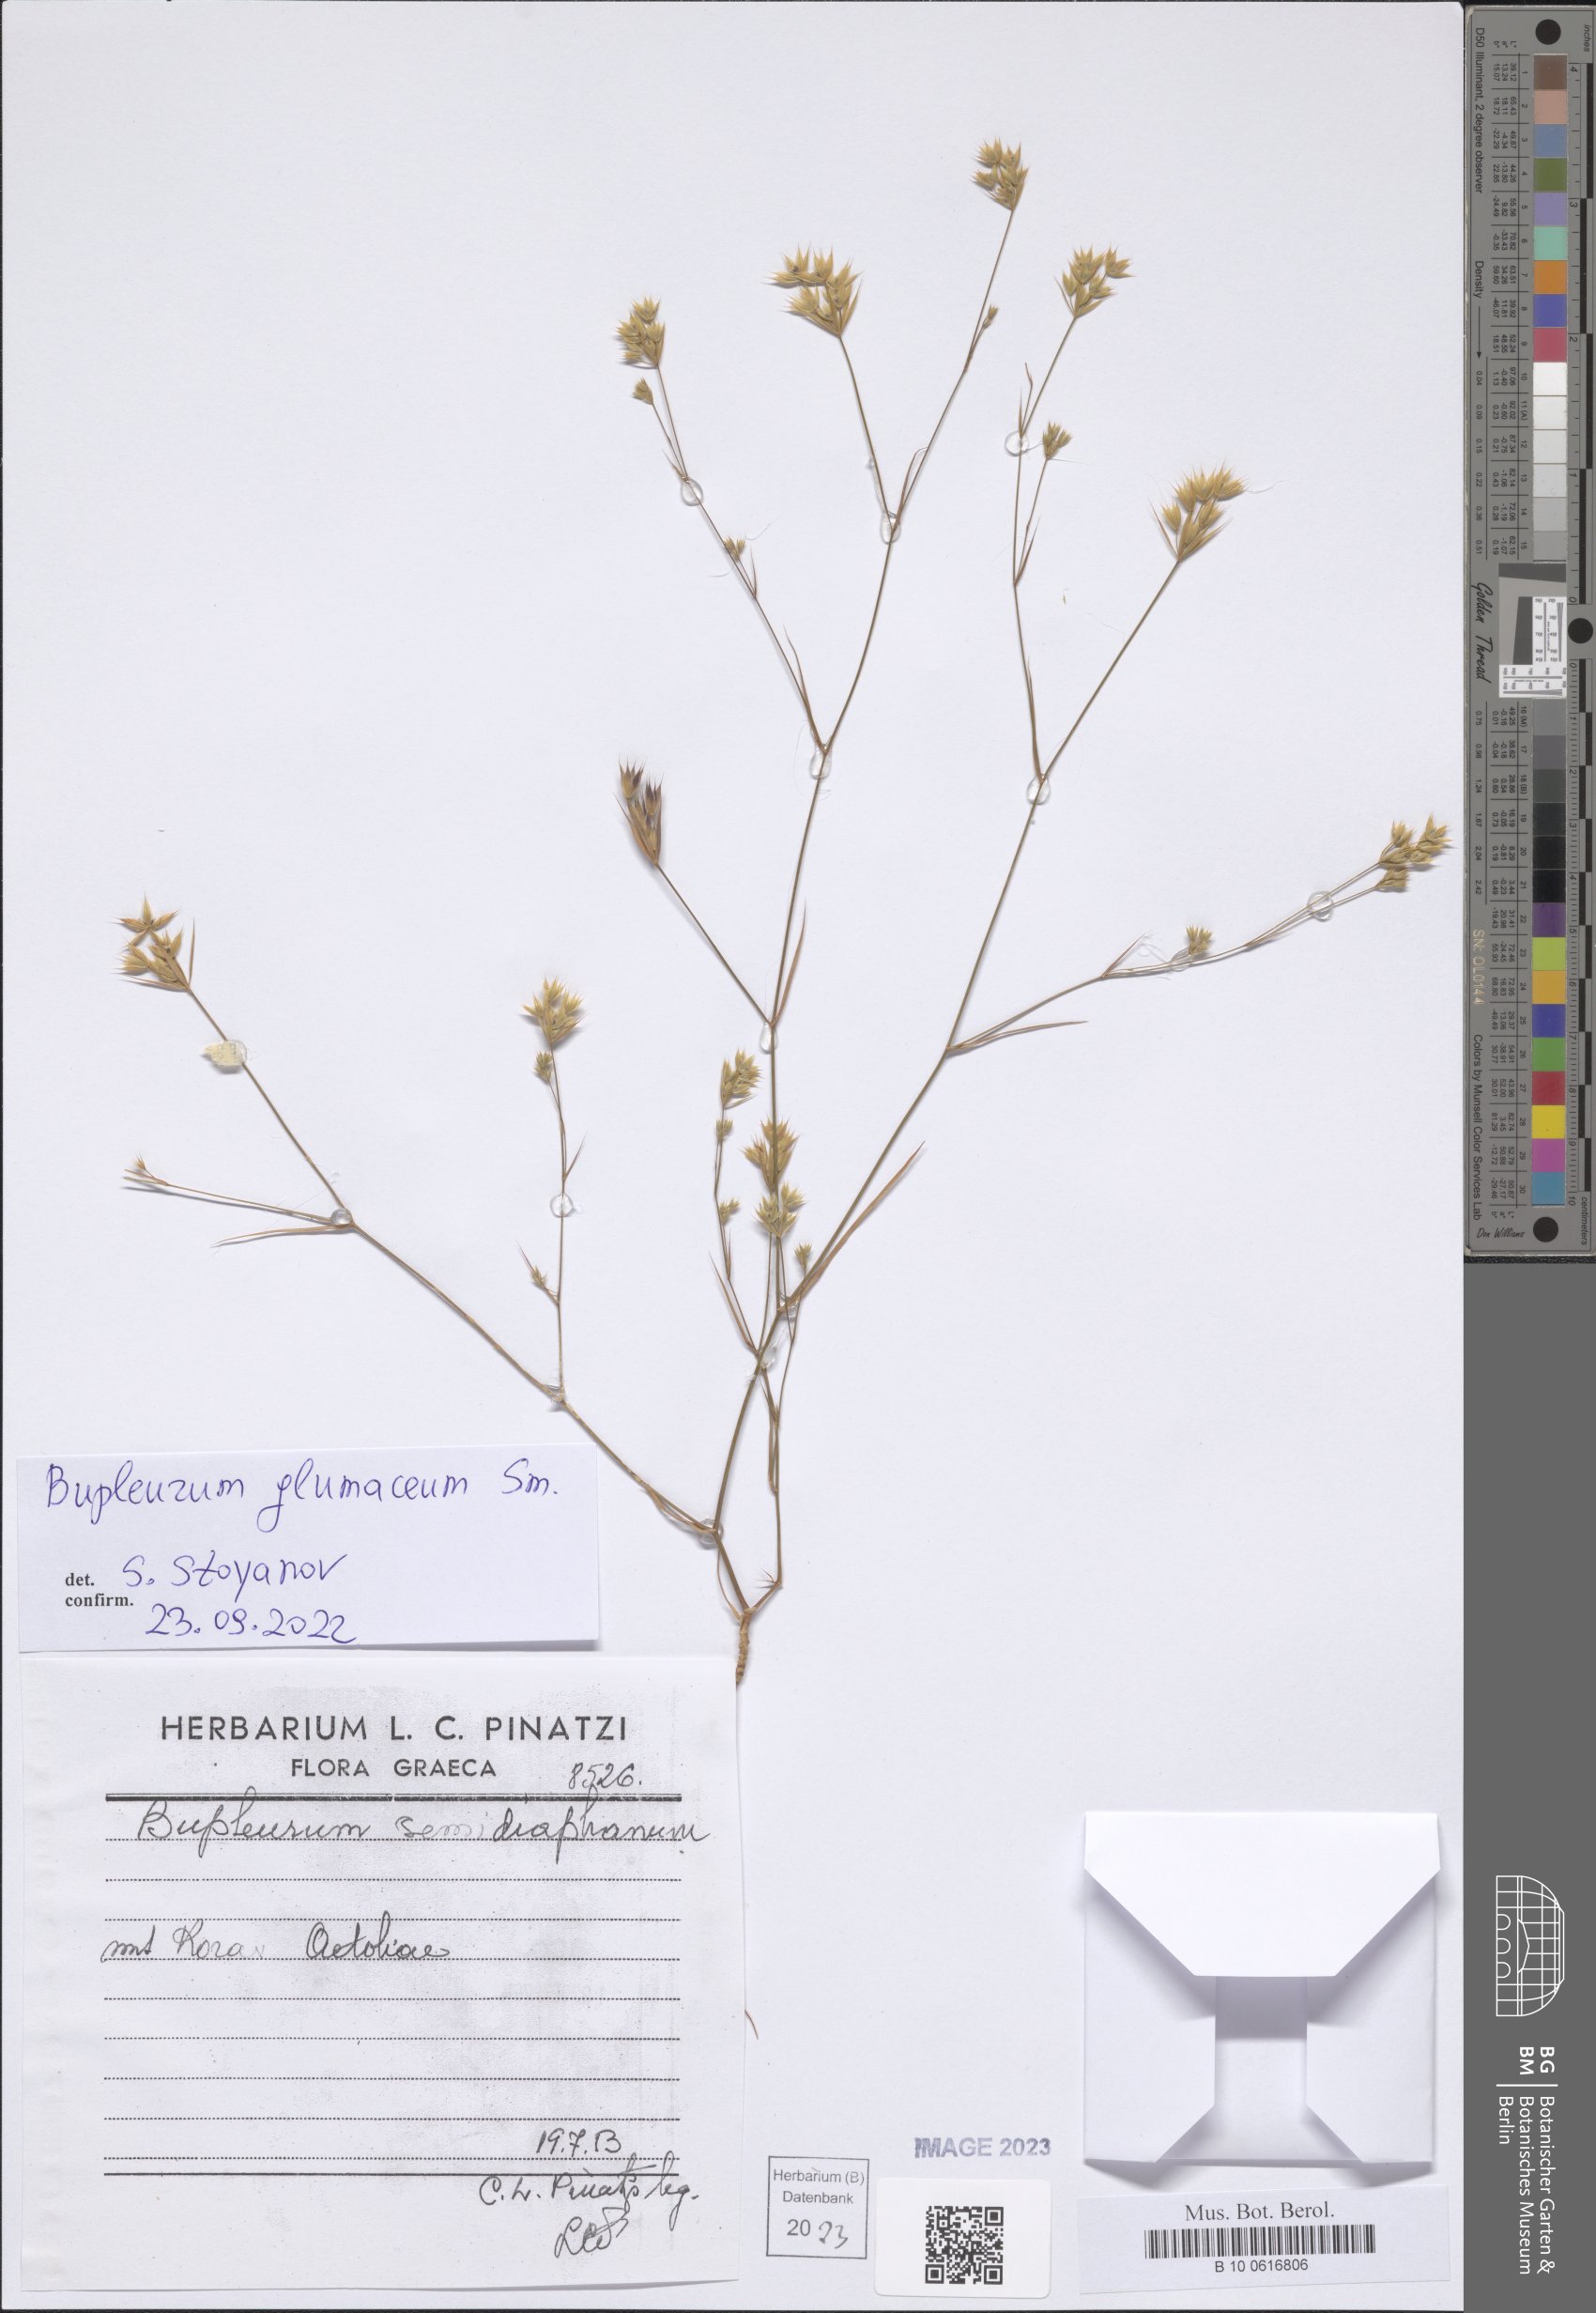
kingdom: Plantae
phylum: Tracheophyta
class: Magnoliopsida
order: Apiales
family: Apiaceae
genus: Bupleurum
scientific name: Bupleurum glumaceum
